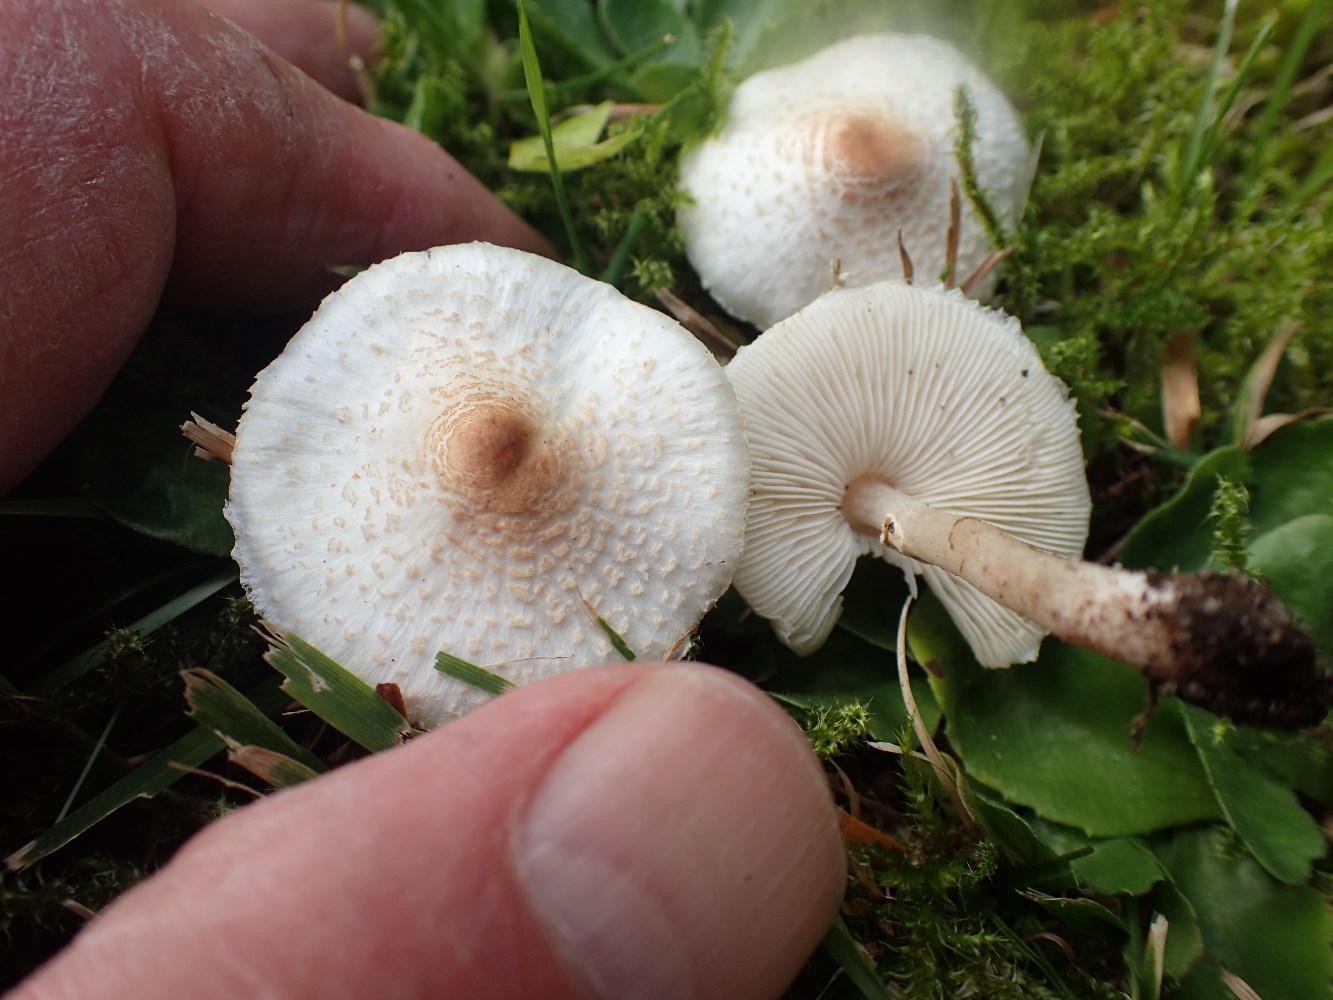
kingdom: Fungi
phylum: Basidiomycota
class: Agaricomycetes
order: Agaricales
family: Agaricaceae
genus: Lepiota
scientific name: Lepiota cristata
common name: stinkende parasolhat
